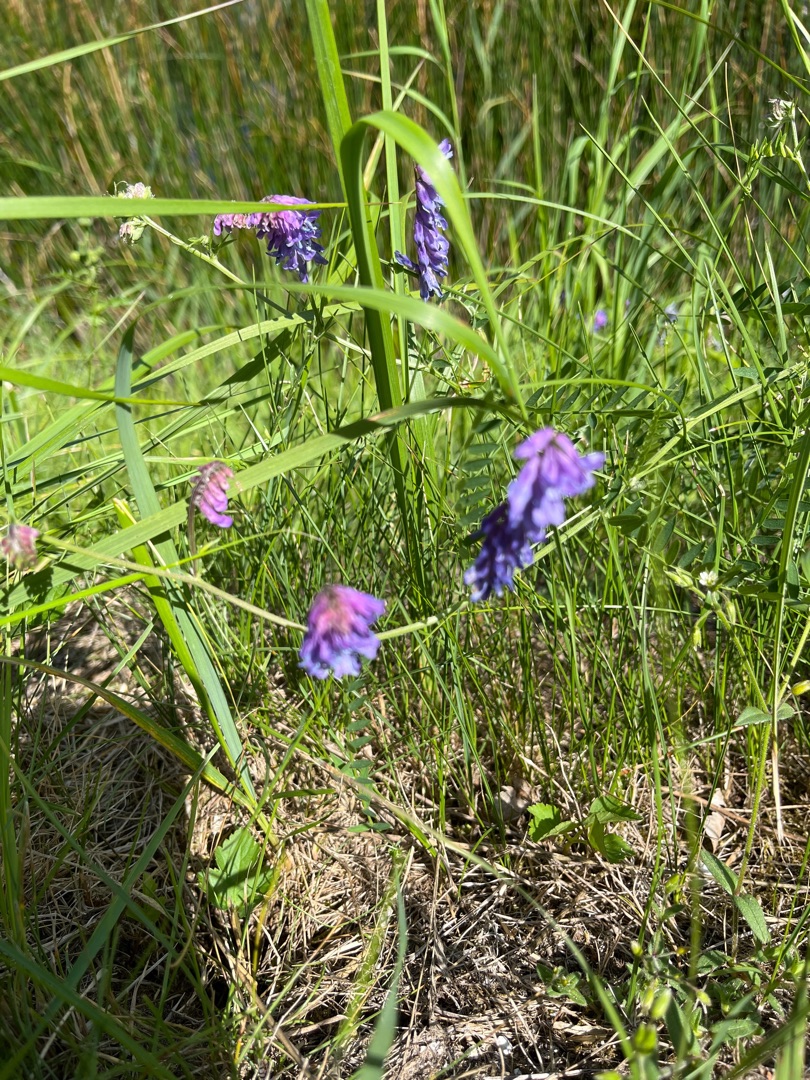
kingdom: Plantae
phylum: Tracheophyta
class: Magnoliopsida
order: Fabales
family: Fabaceae
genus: Vicia
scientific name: Vicia cracca
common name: Muse-vikke
